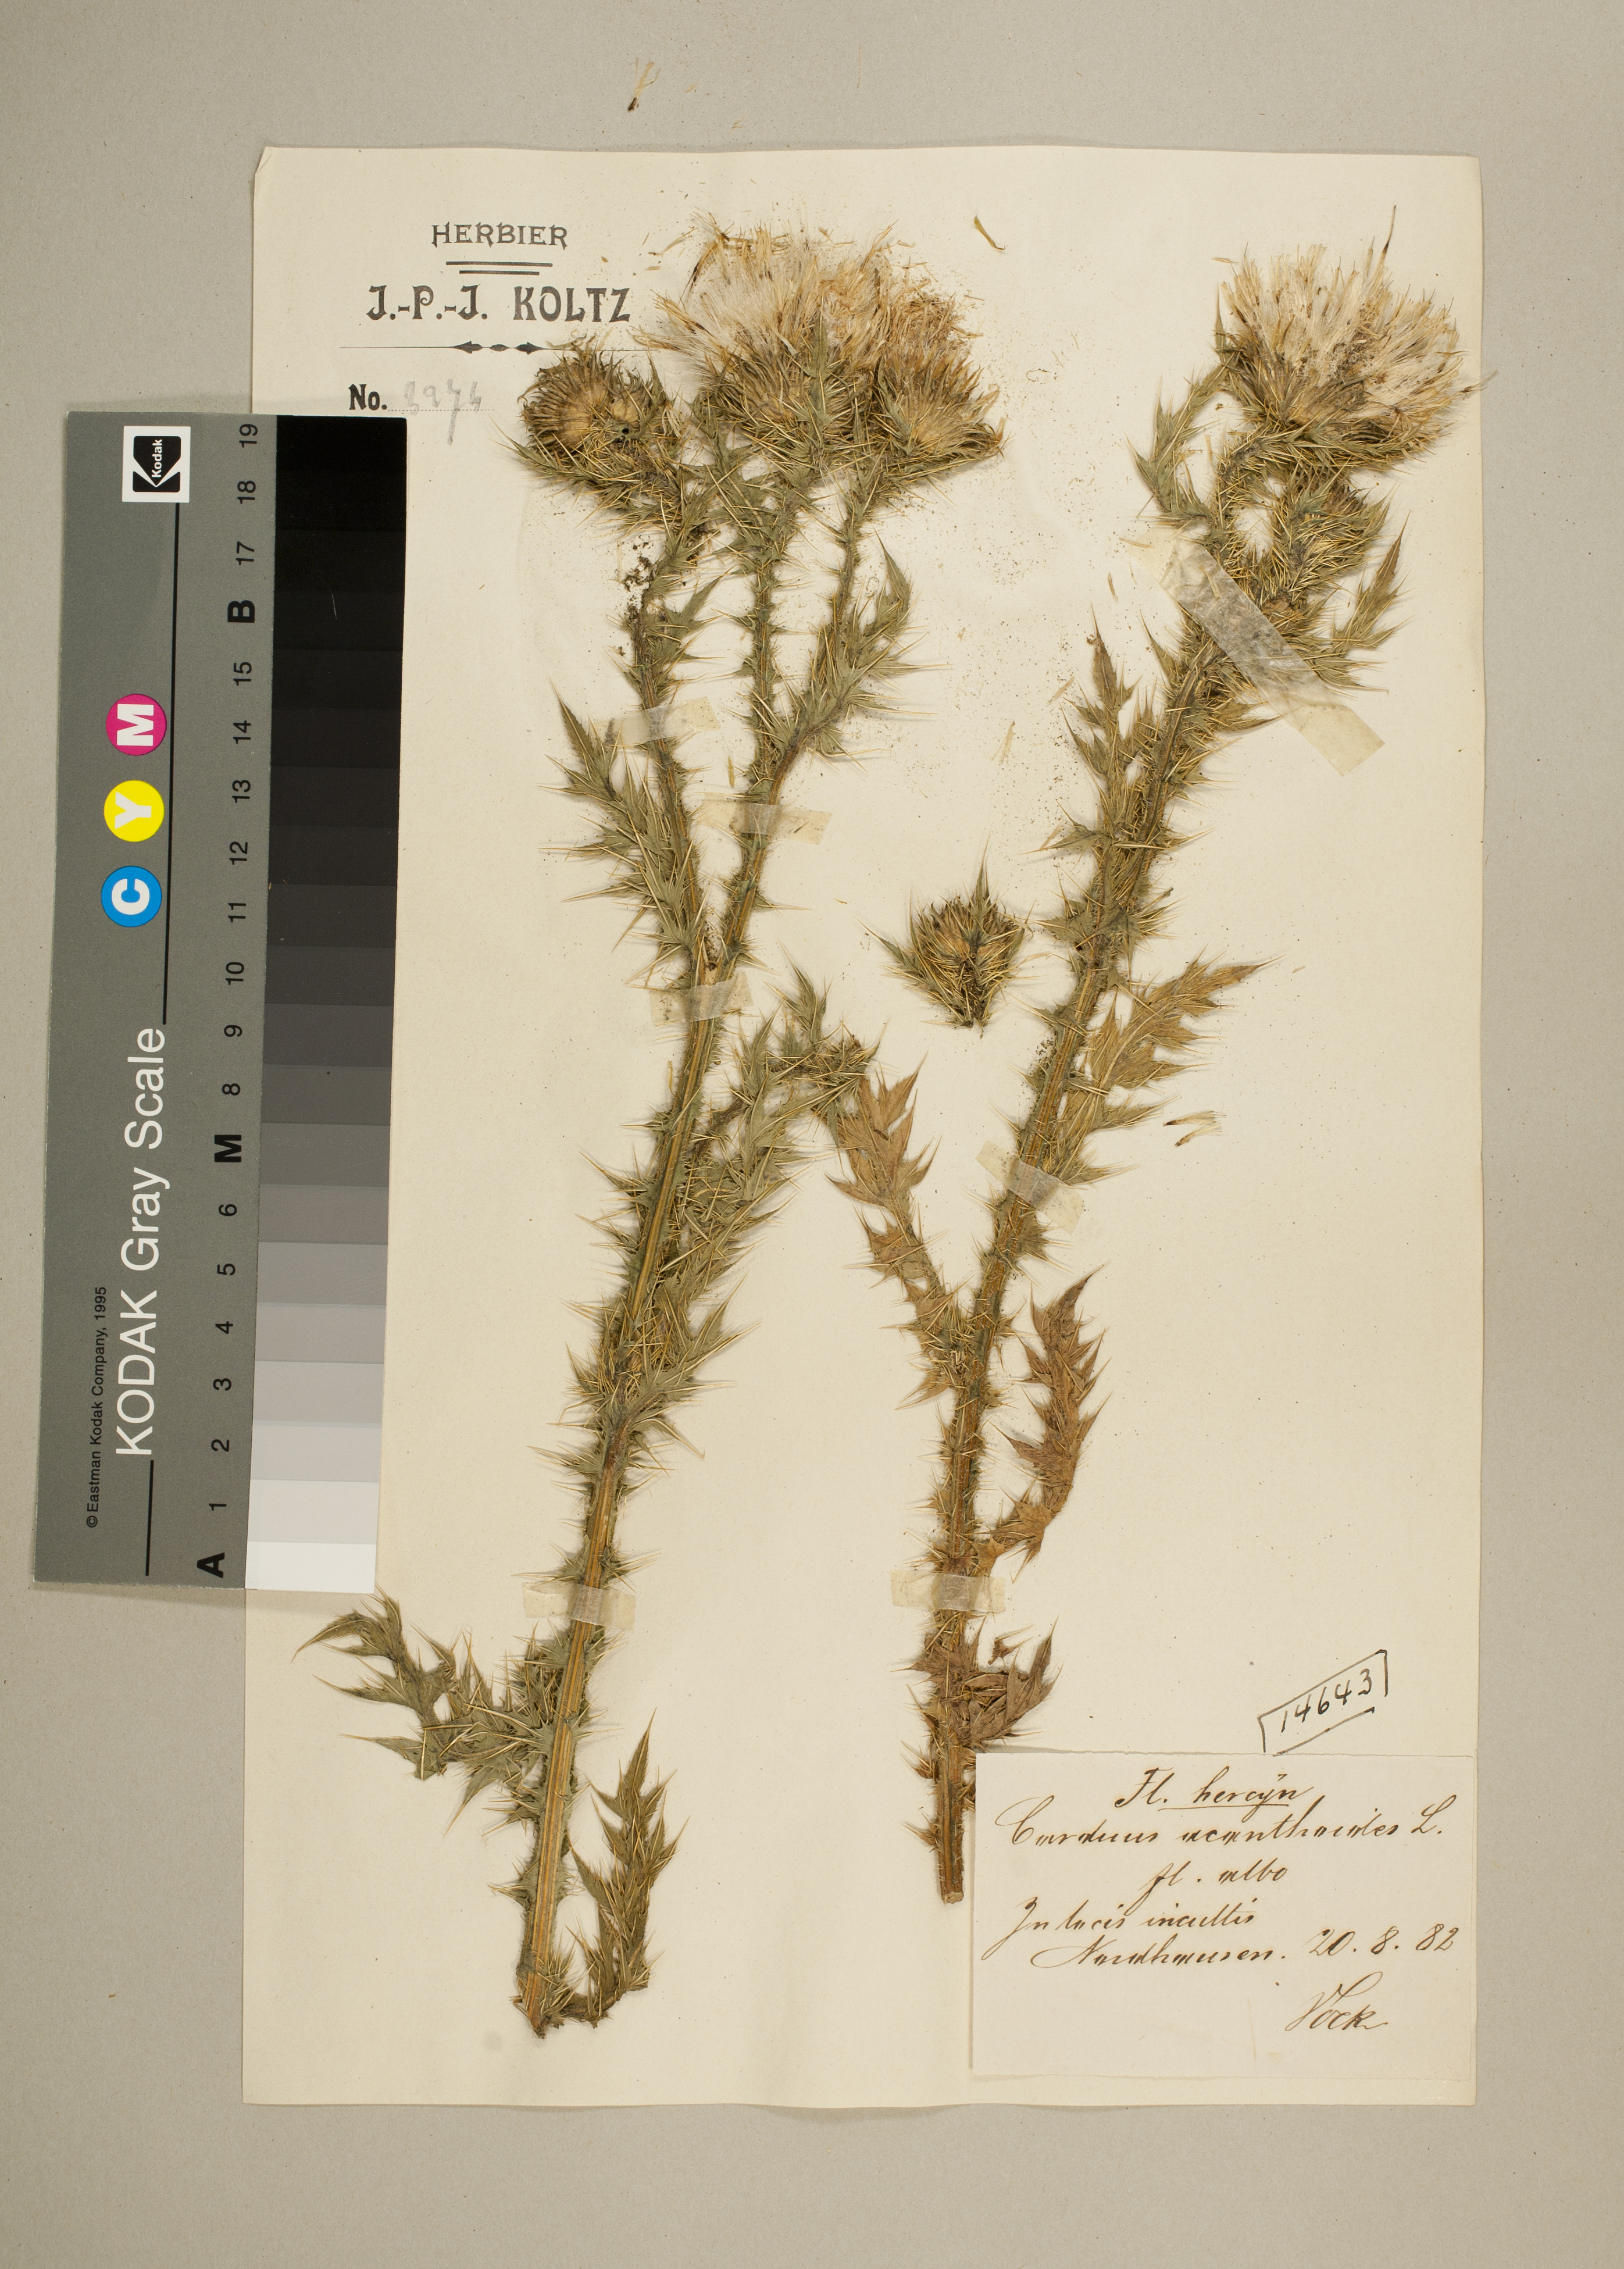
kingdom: Plantae
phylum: Tracheophyta
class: Magnoliopsida
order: Asterales
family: Asteraceae
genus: Carduus
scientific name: Carduus acanthoides
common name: Plumeless thistle
